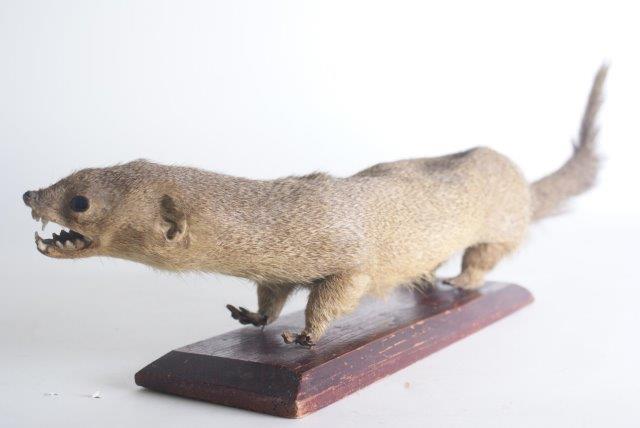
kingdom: Animalia
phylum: Chordata
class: Mammalia
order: Carnivora
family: Herpestidae
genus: Crossarchus
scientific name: Crossarchus obscurus
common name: Long-nosed cusimanse
